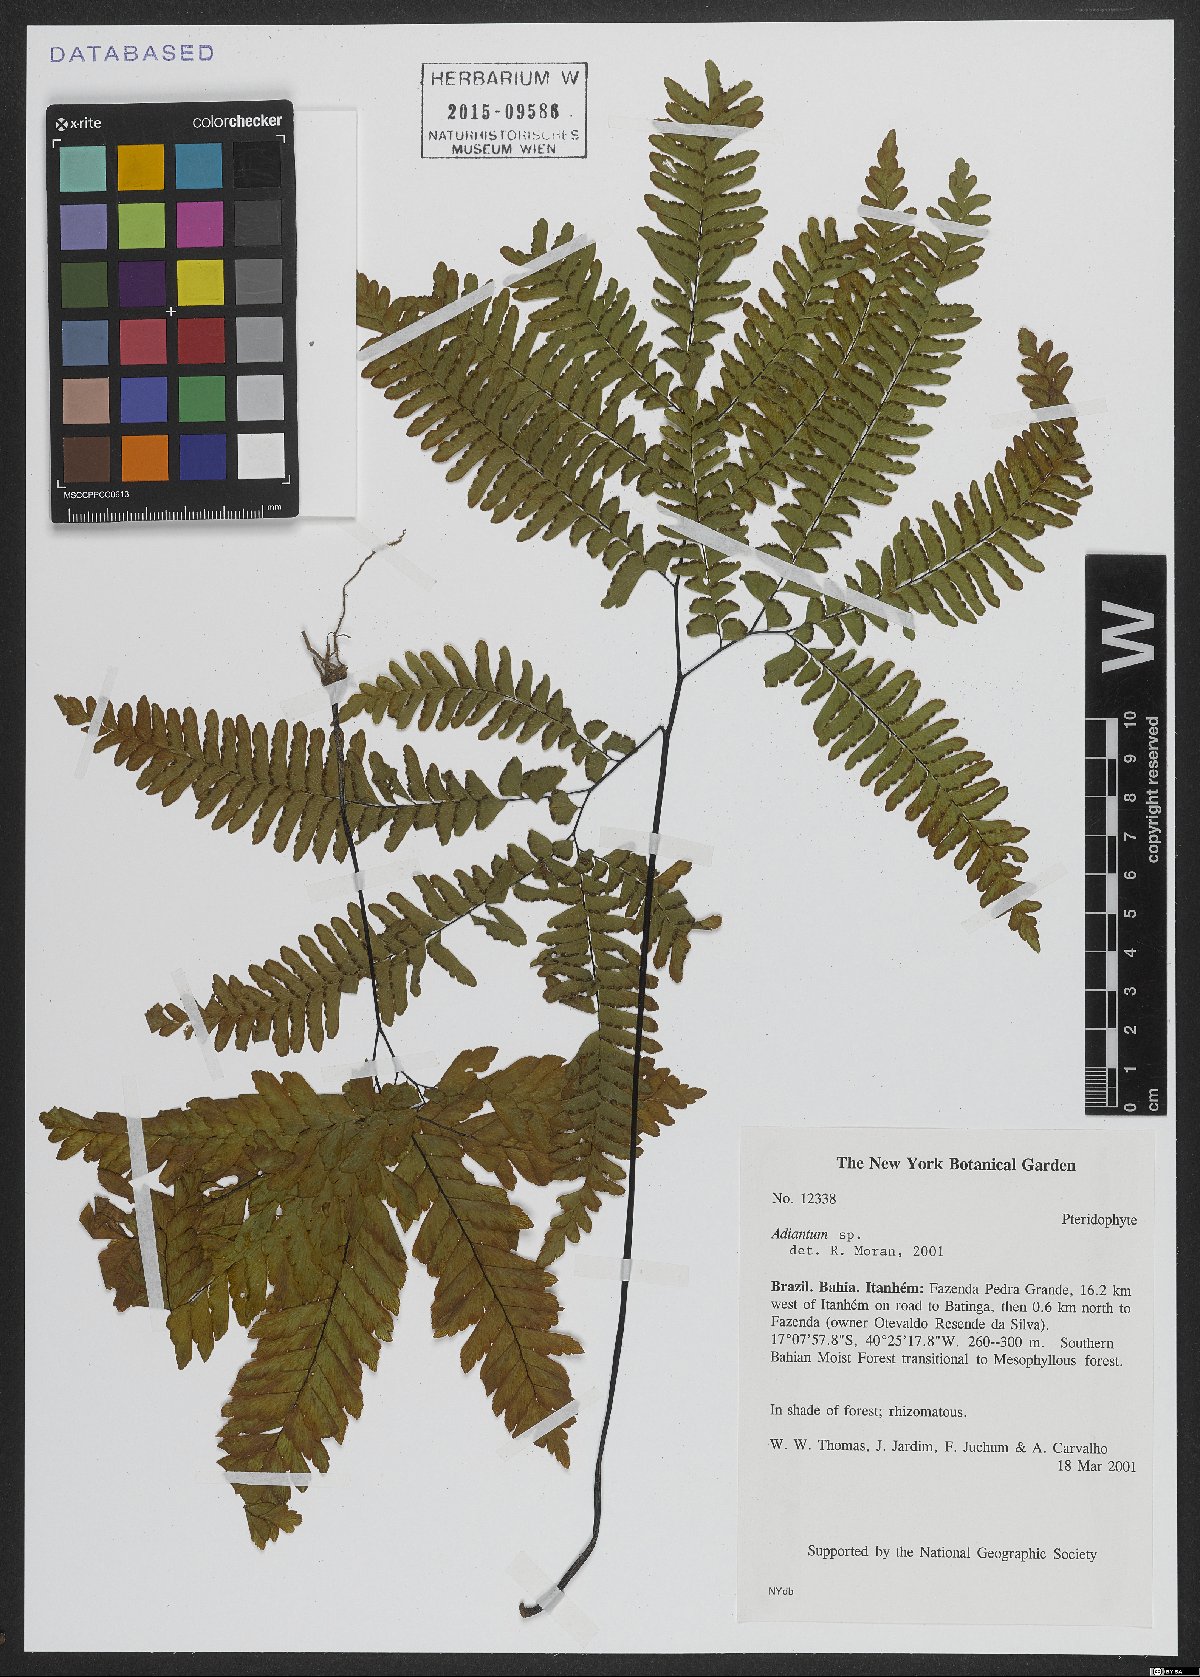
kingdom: Plantae
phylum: Tracheophyta
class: Polypodiopsida
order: Polypodiales
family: Pteridaceae
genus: Adiantum
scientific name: Adiantum
